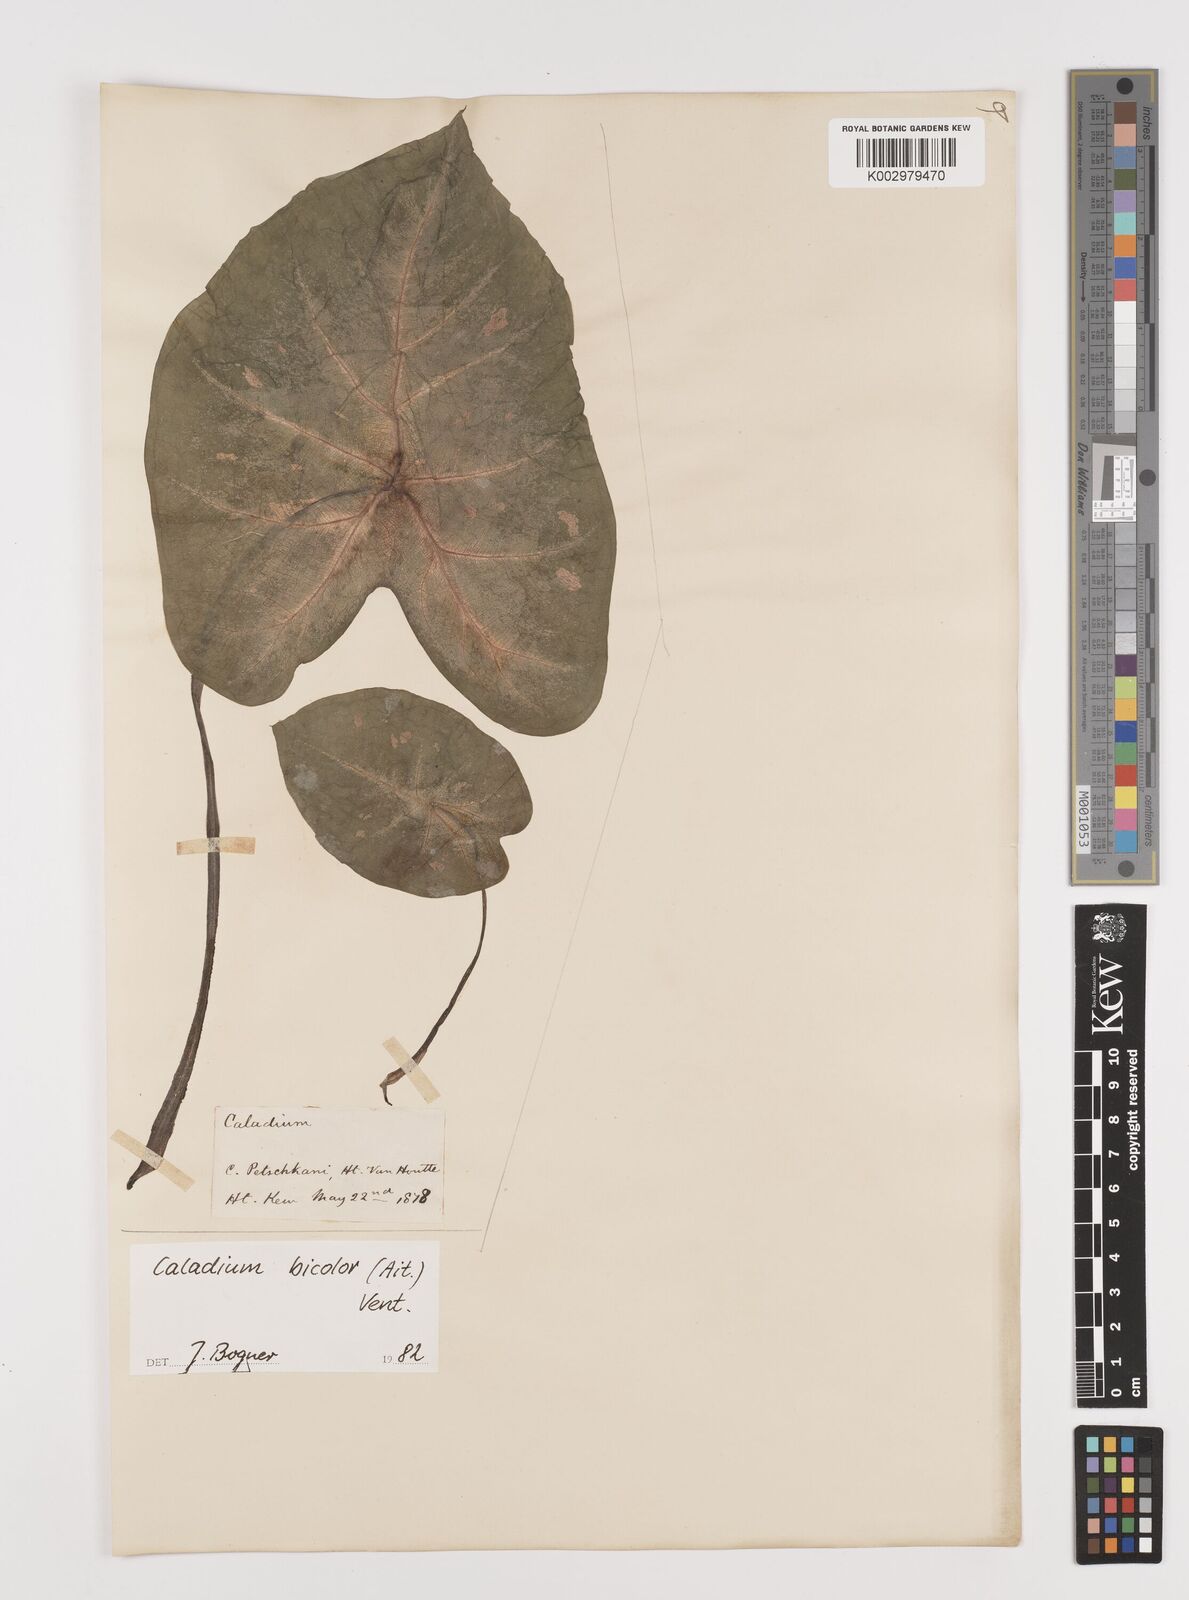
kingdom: Plantae
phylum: Tracheophyta
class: Liliopsida
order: Alismatales
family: Araceae
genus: Caladium
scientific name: Caladium bicolor
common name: Artist's pallet
